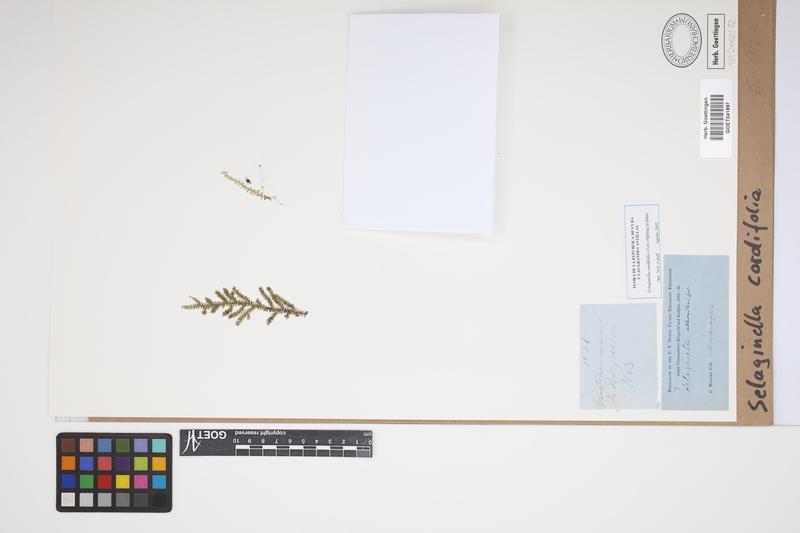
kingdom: Plantae
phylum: Tracheophyta
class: Lycopodiopsida
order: Selaginellales
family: Selaginellaceae
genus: Selaginella
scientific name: Selaginella cordifolia
